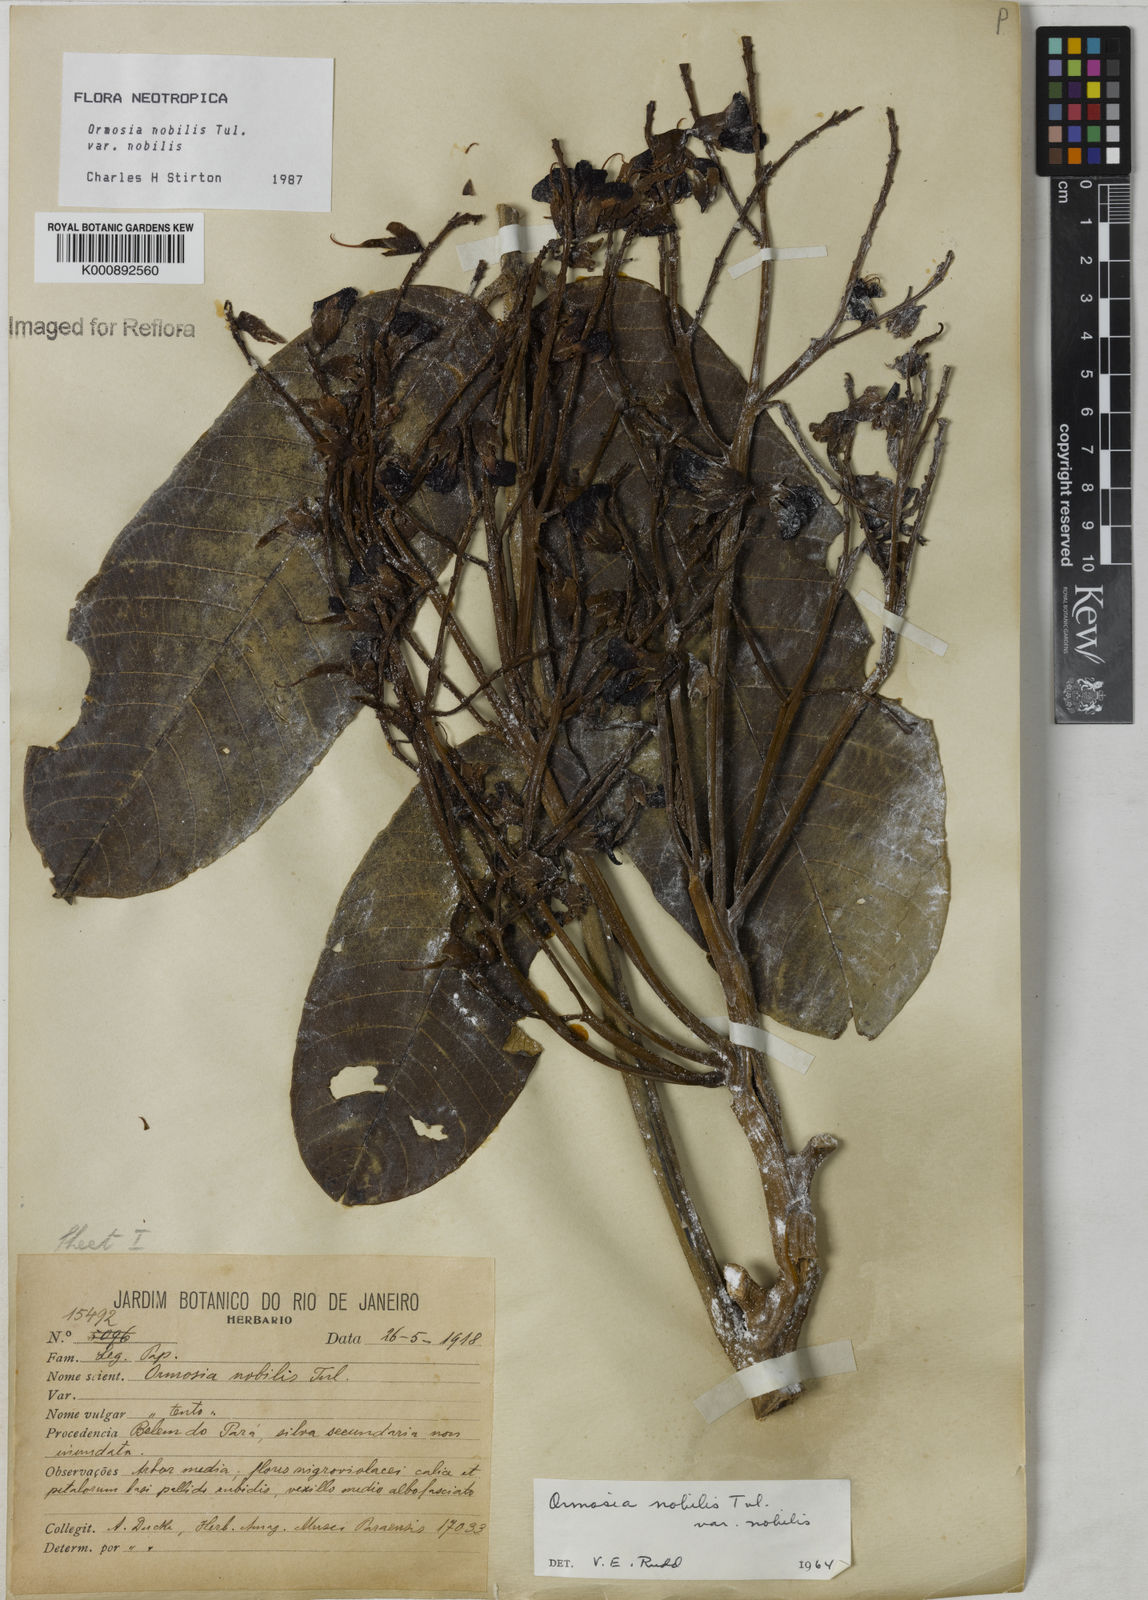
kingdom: Plantae
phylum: Tracheophyta
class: Magnoliopsida
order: Fabales
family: Fabaceae
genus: Ormosia
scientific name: Ormosia nobilis
